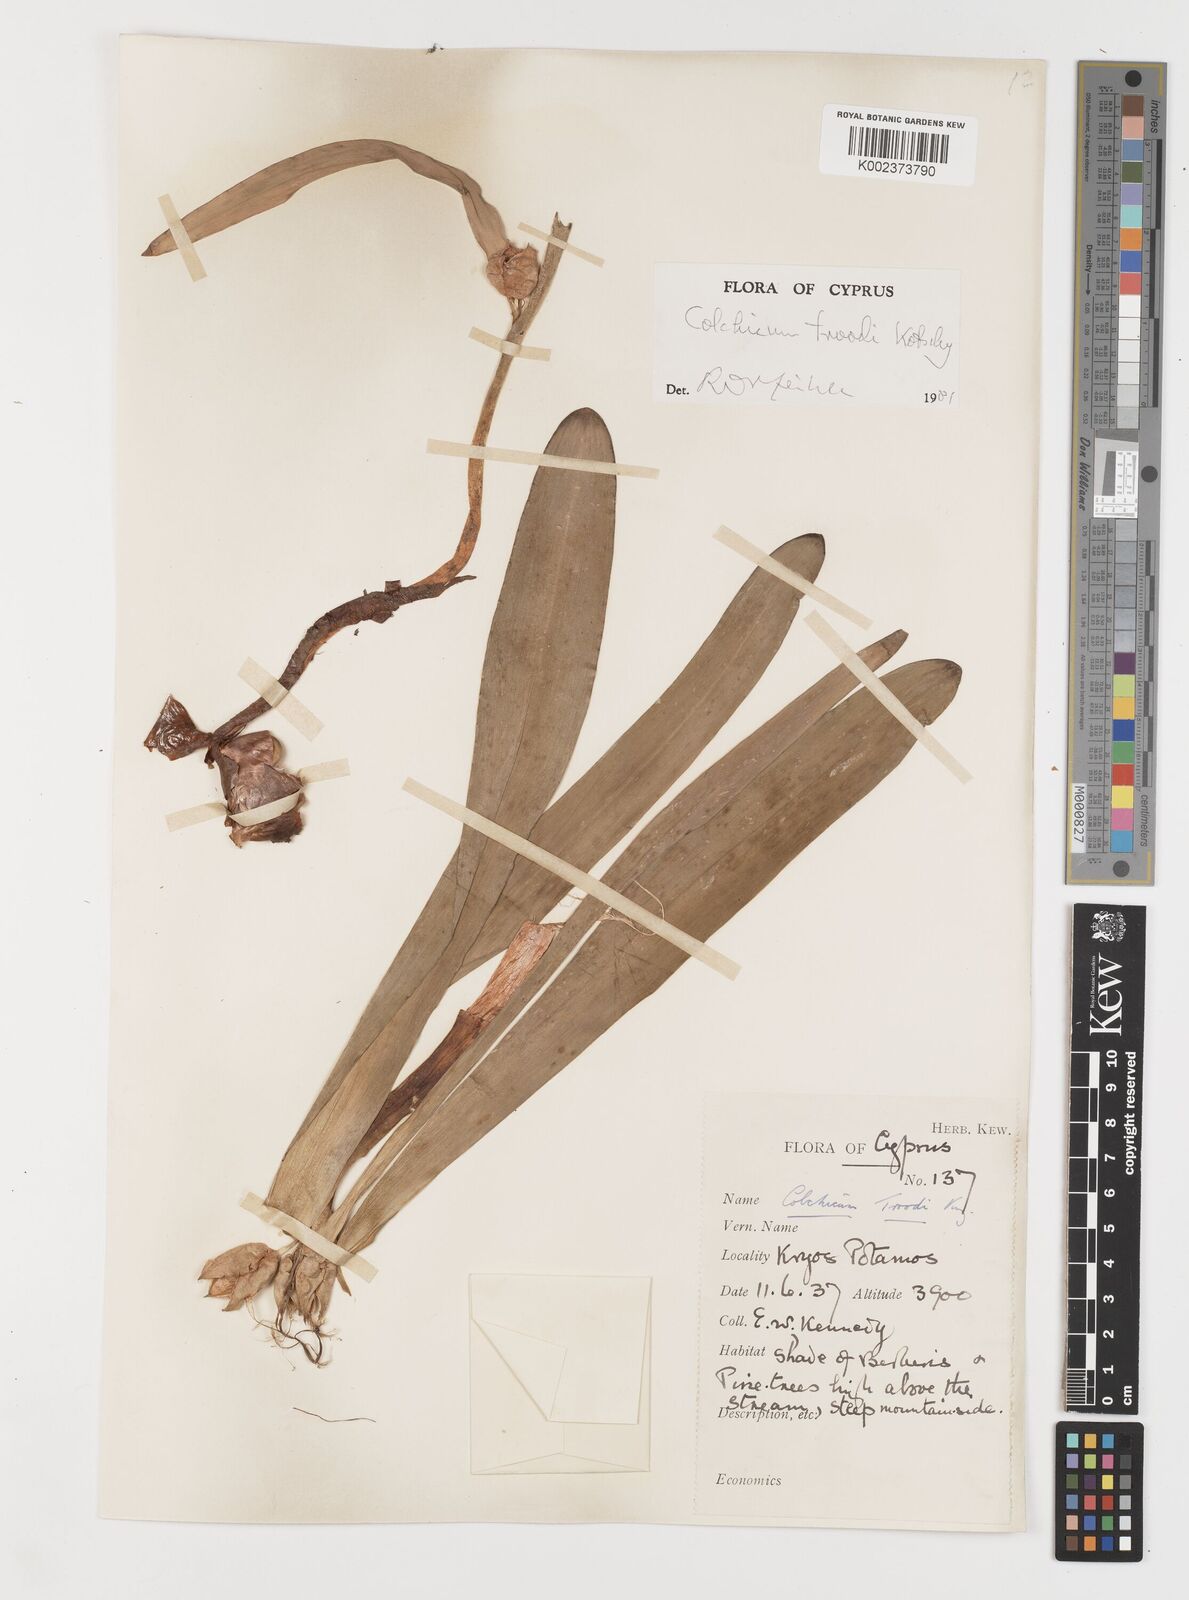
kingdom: Plantae
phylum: Tracheophyta
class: Liliopsida
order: Liliales
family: Colchicaceae
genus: Colchicum
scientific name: Colchicum
